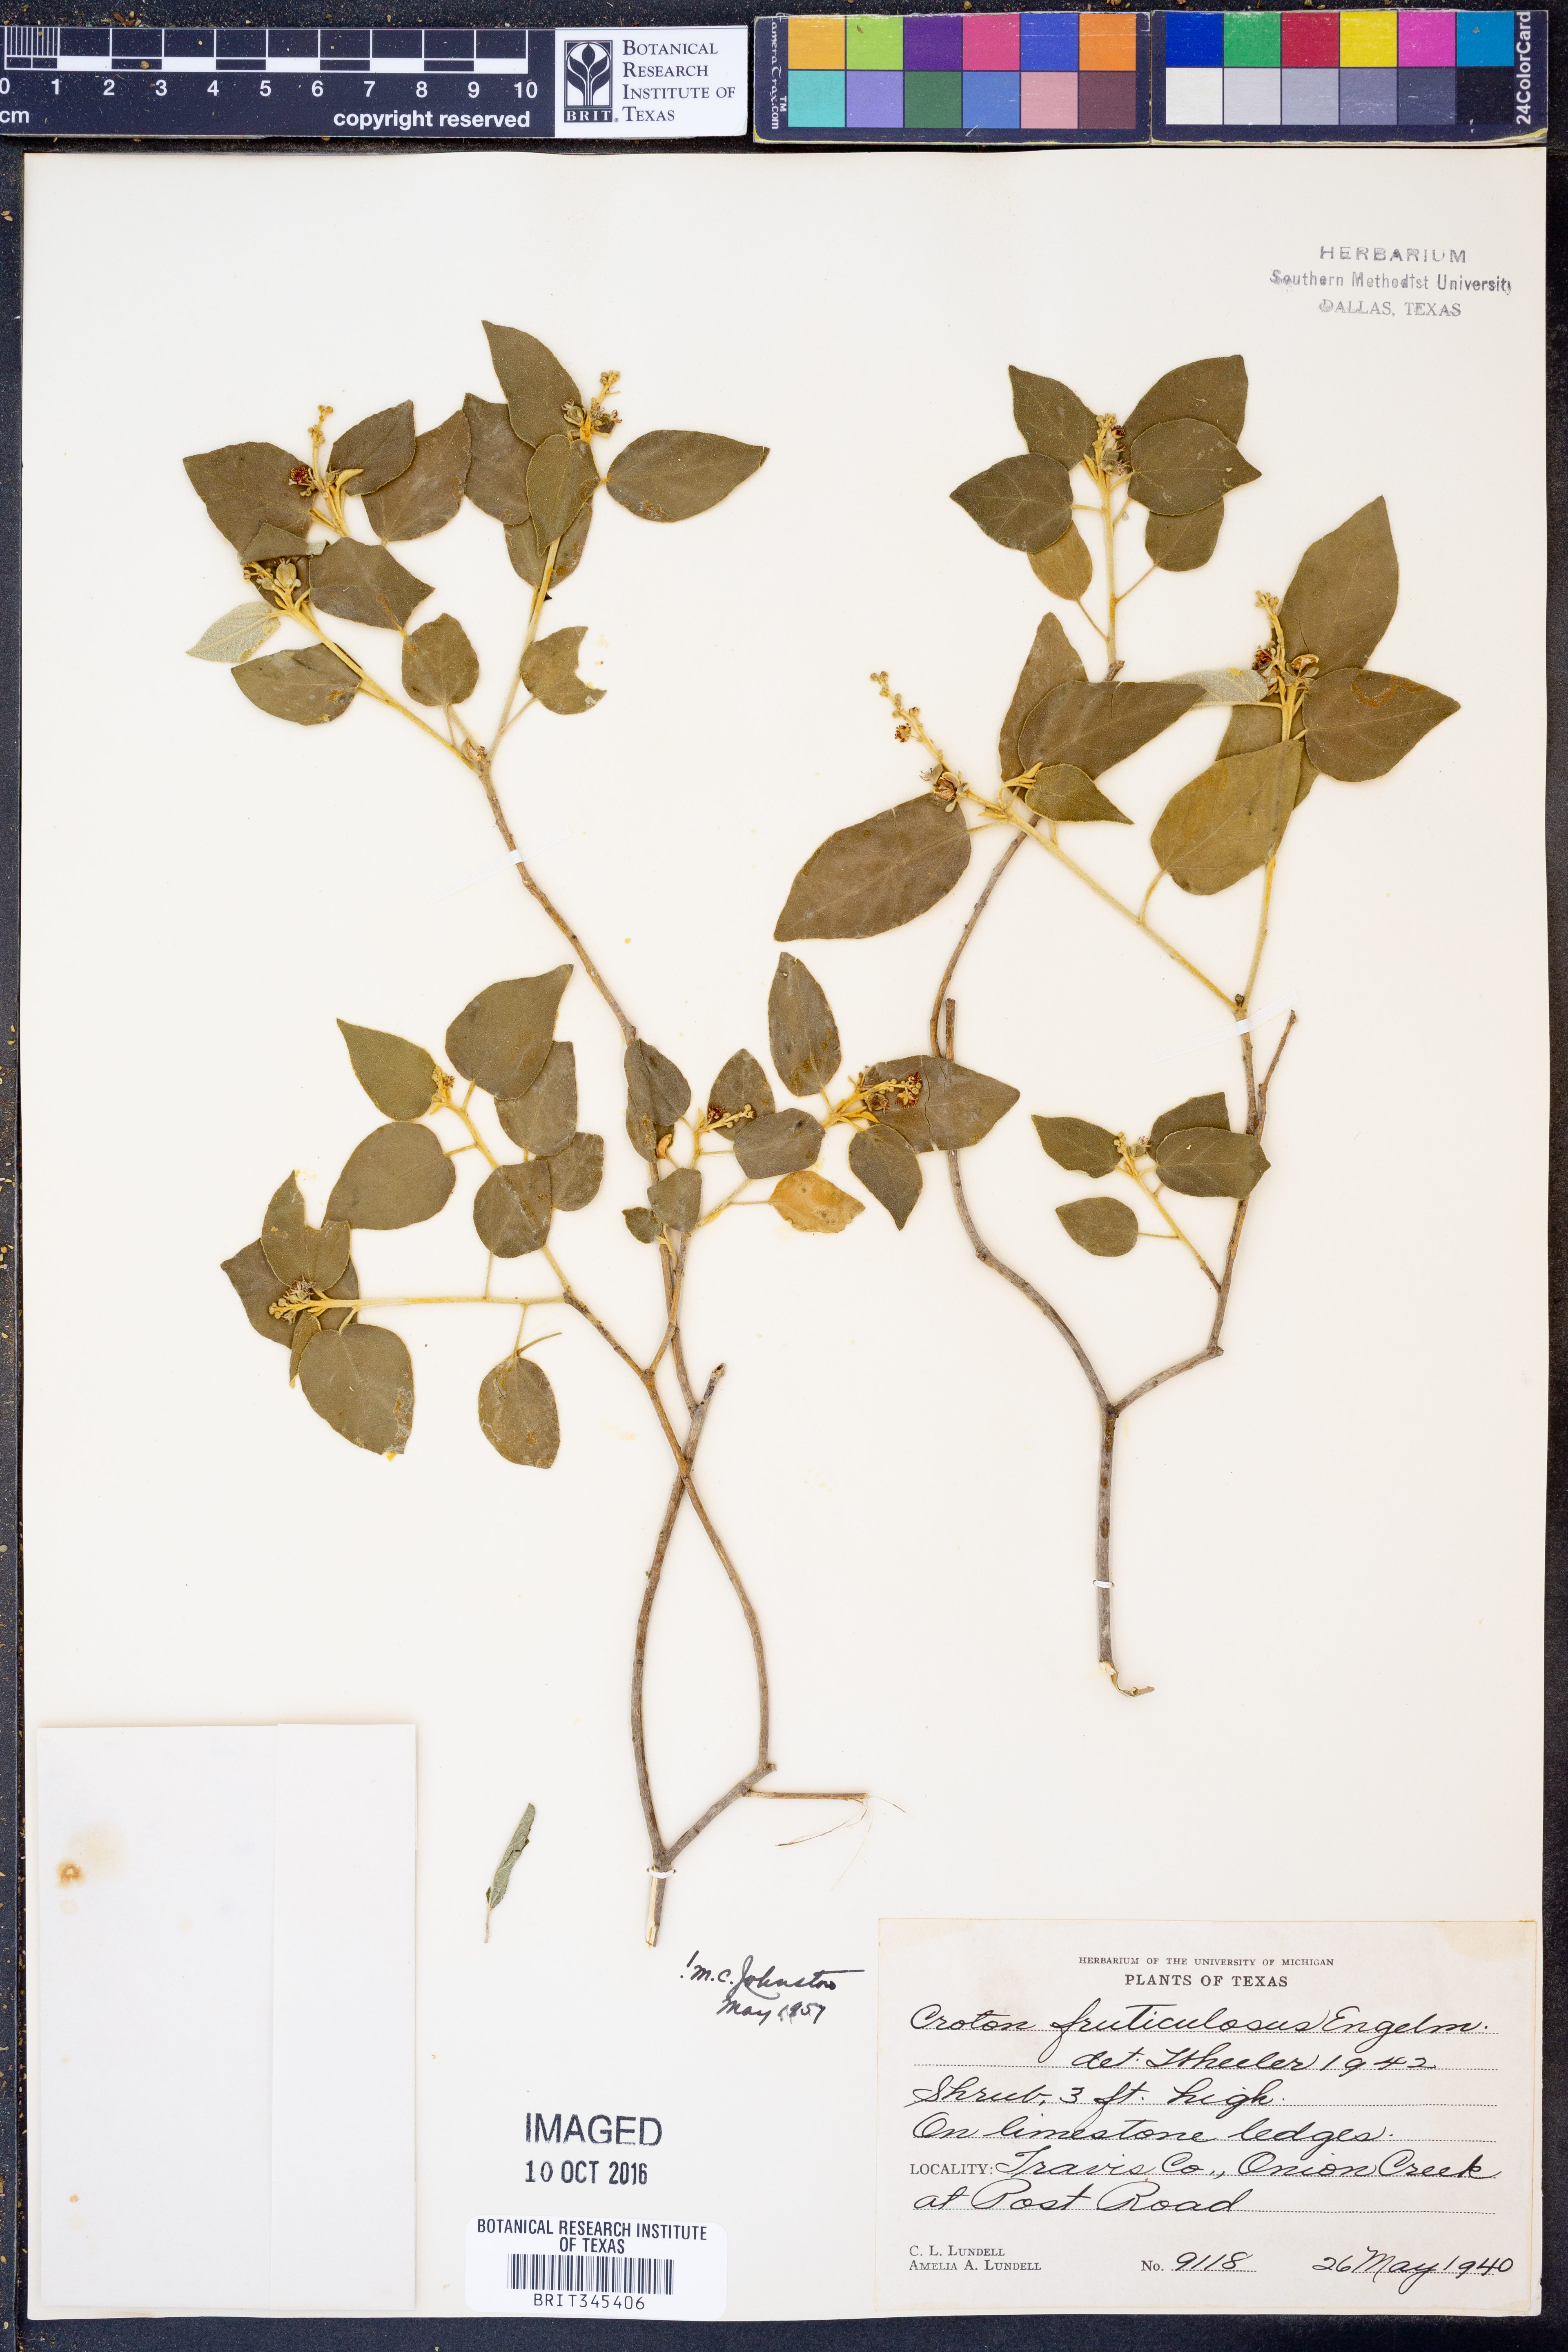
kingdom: Plantae
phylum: Tracheophyta
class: Magnoliopsida
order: Malpighiales
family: Euphorbiaceae
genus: Croton
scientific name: Croton fruticulosus
